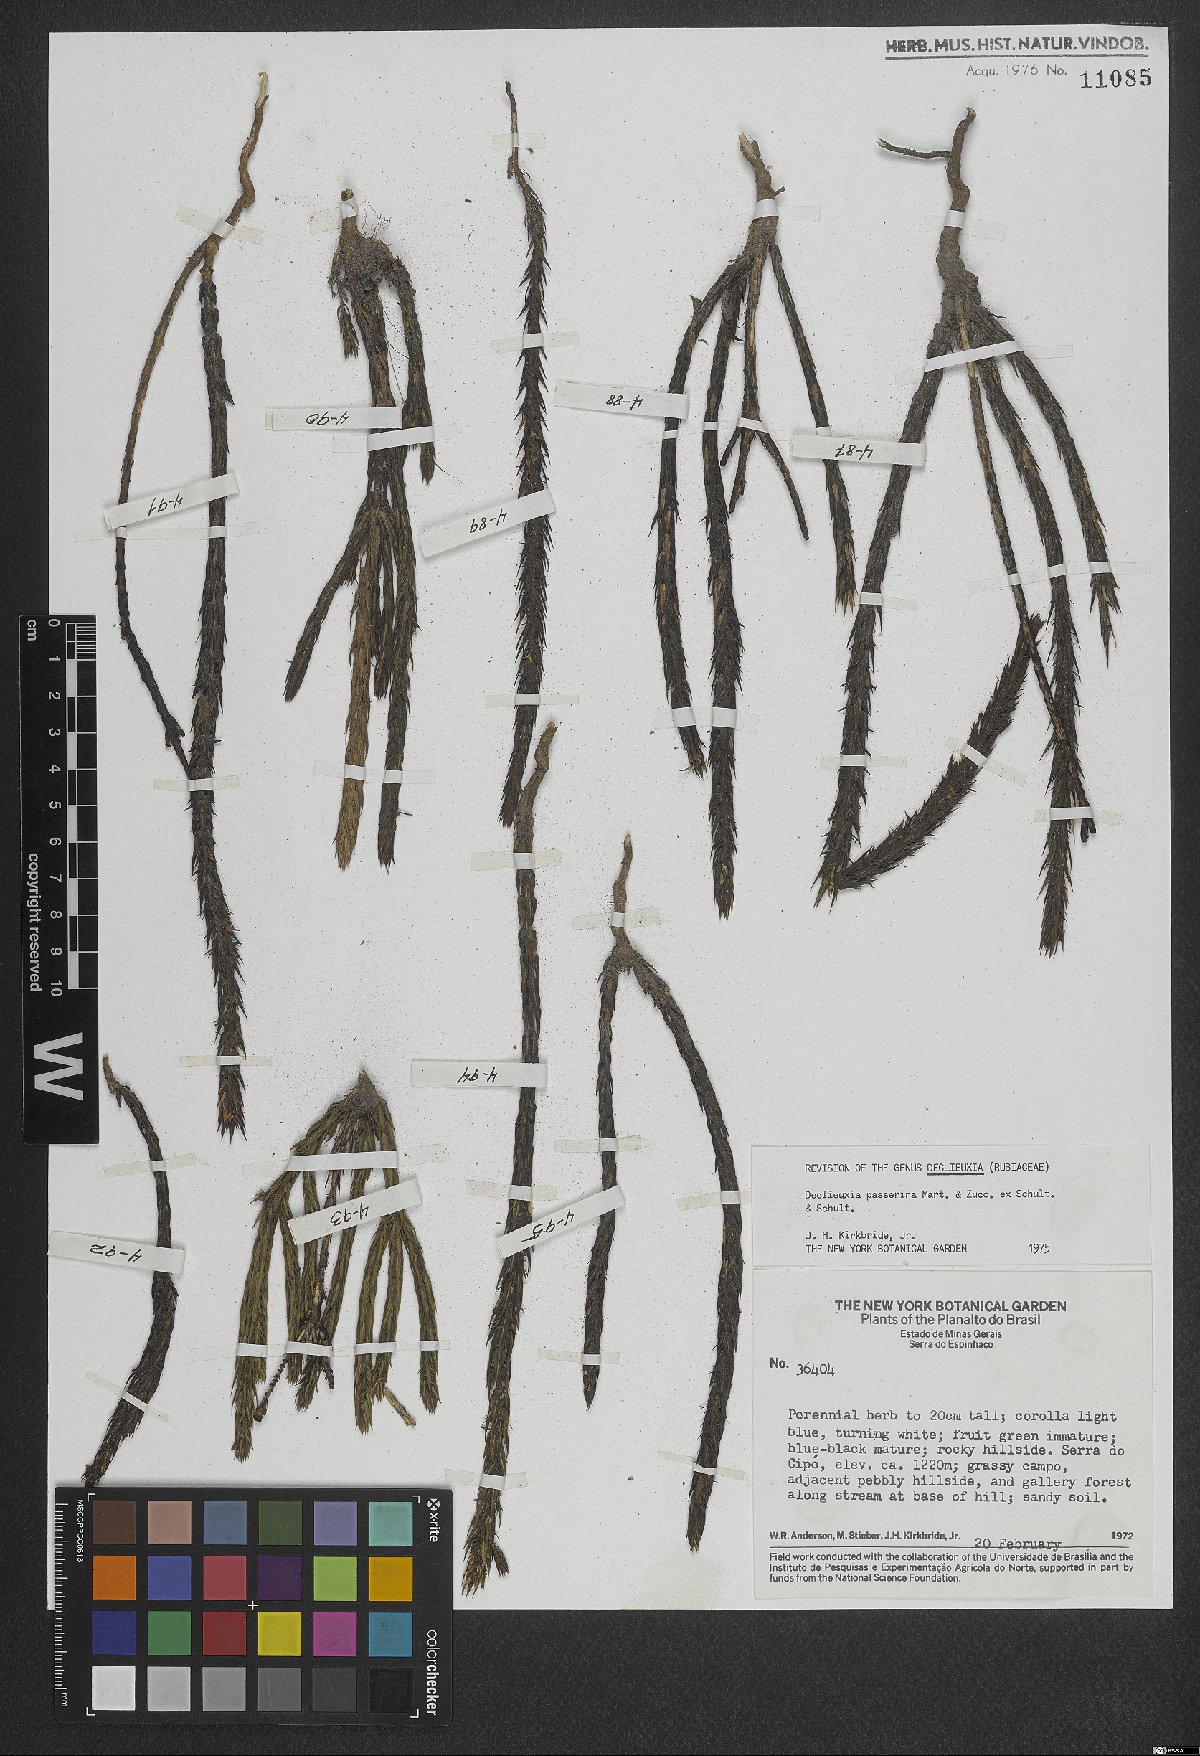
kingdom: Plantae
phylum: Tracheophyta
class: Magnoliopsida
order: Gentianales
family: Rubiaceae
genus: Declieuxia
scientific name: Declieuxia passerina
